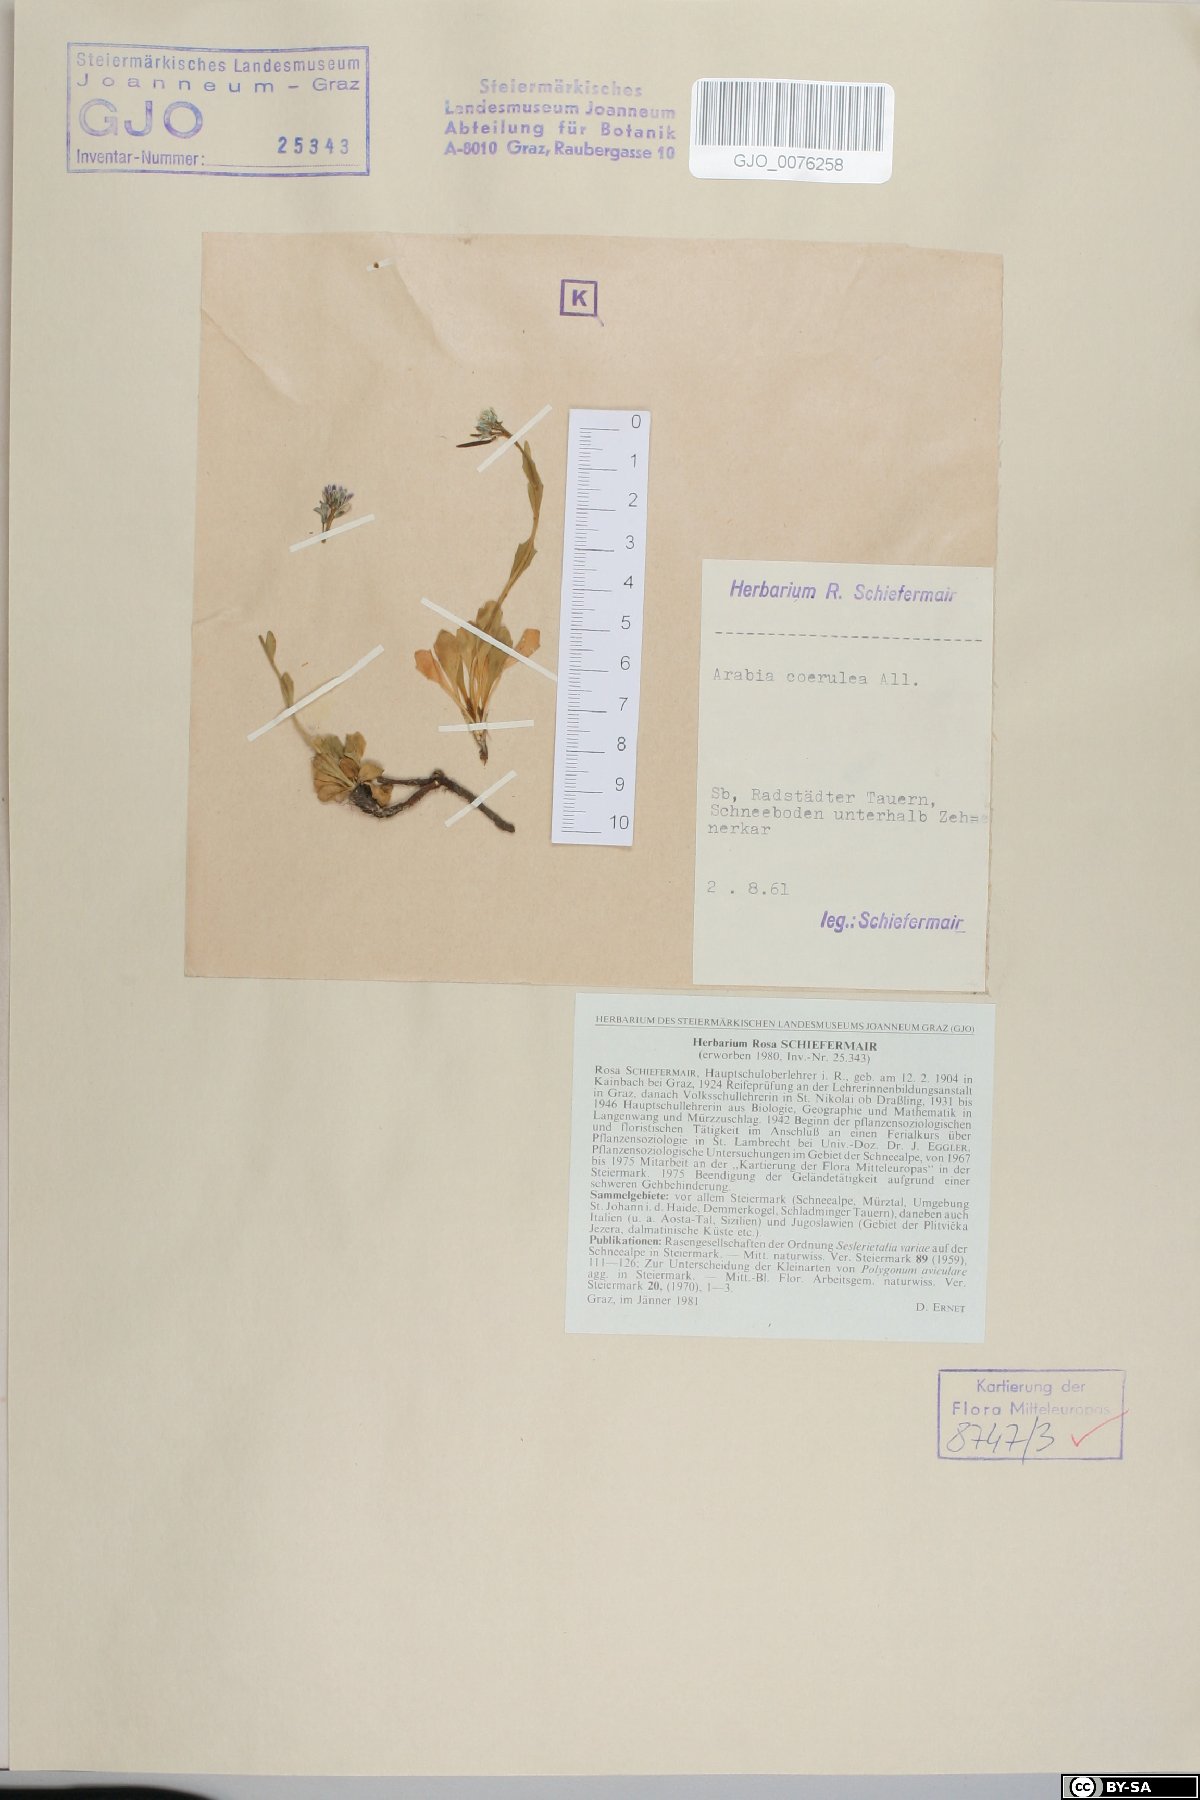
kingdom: Plantae
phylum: Tracheophyta
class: Magnoliopsida
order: Brassicales
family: Brassicaceae
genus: Arabis
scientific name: Arabis caerulea
